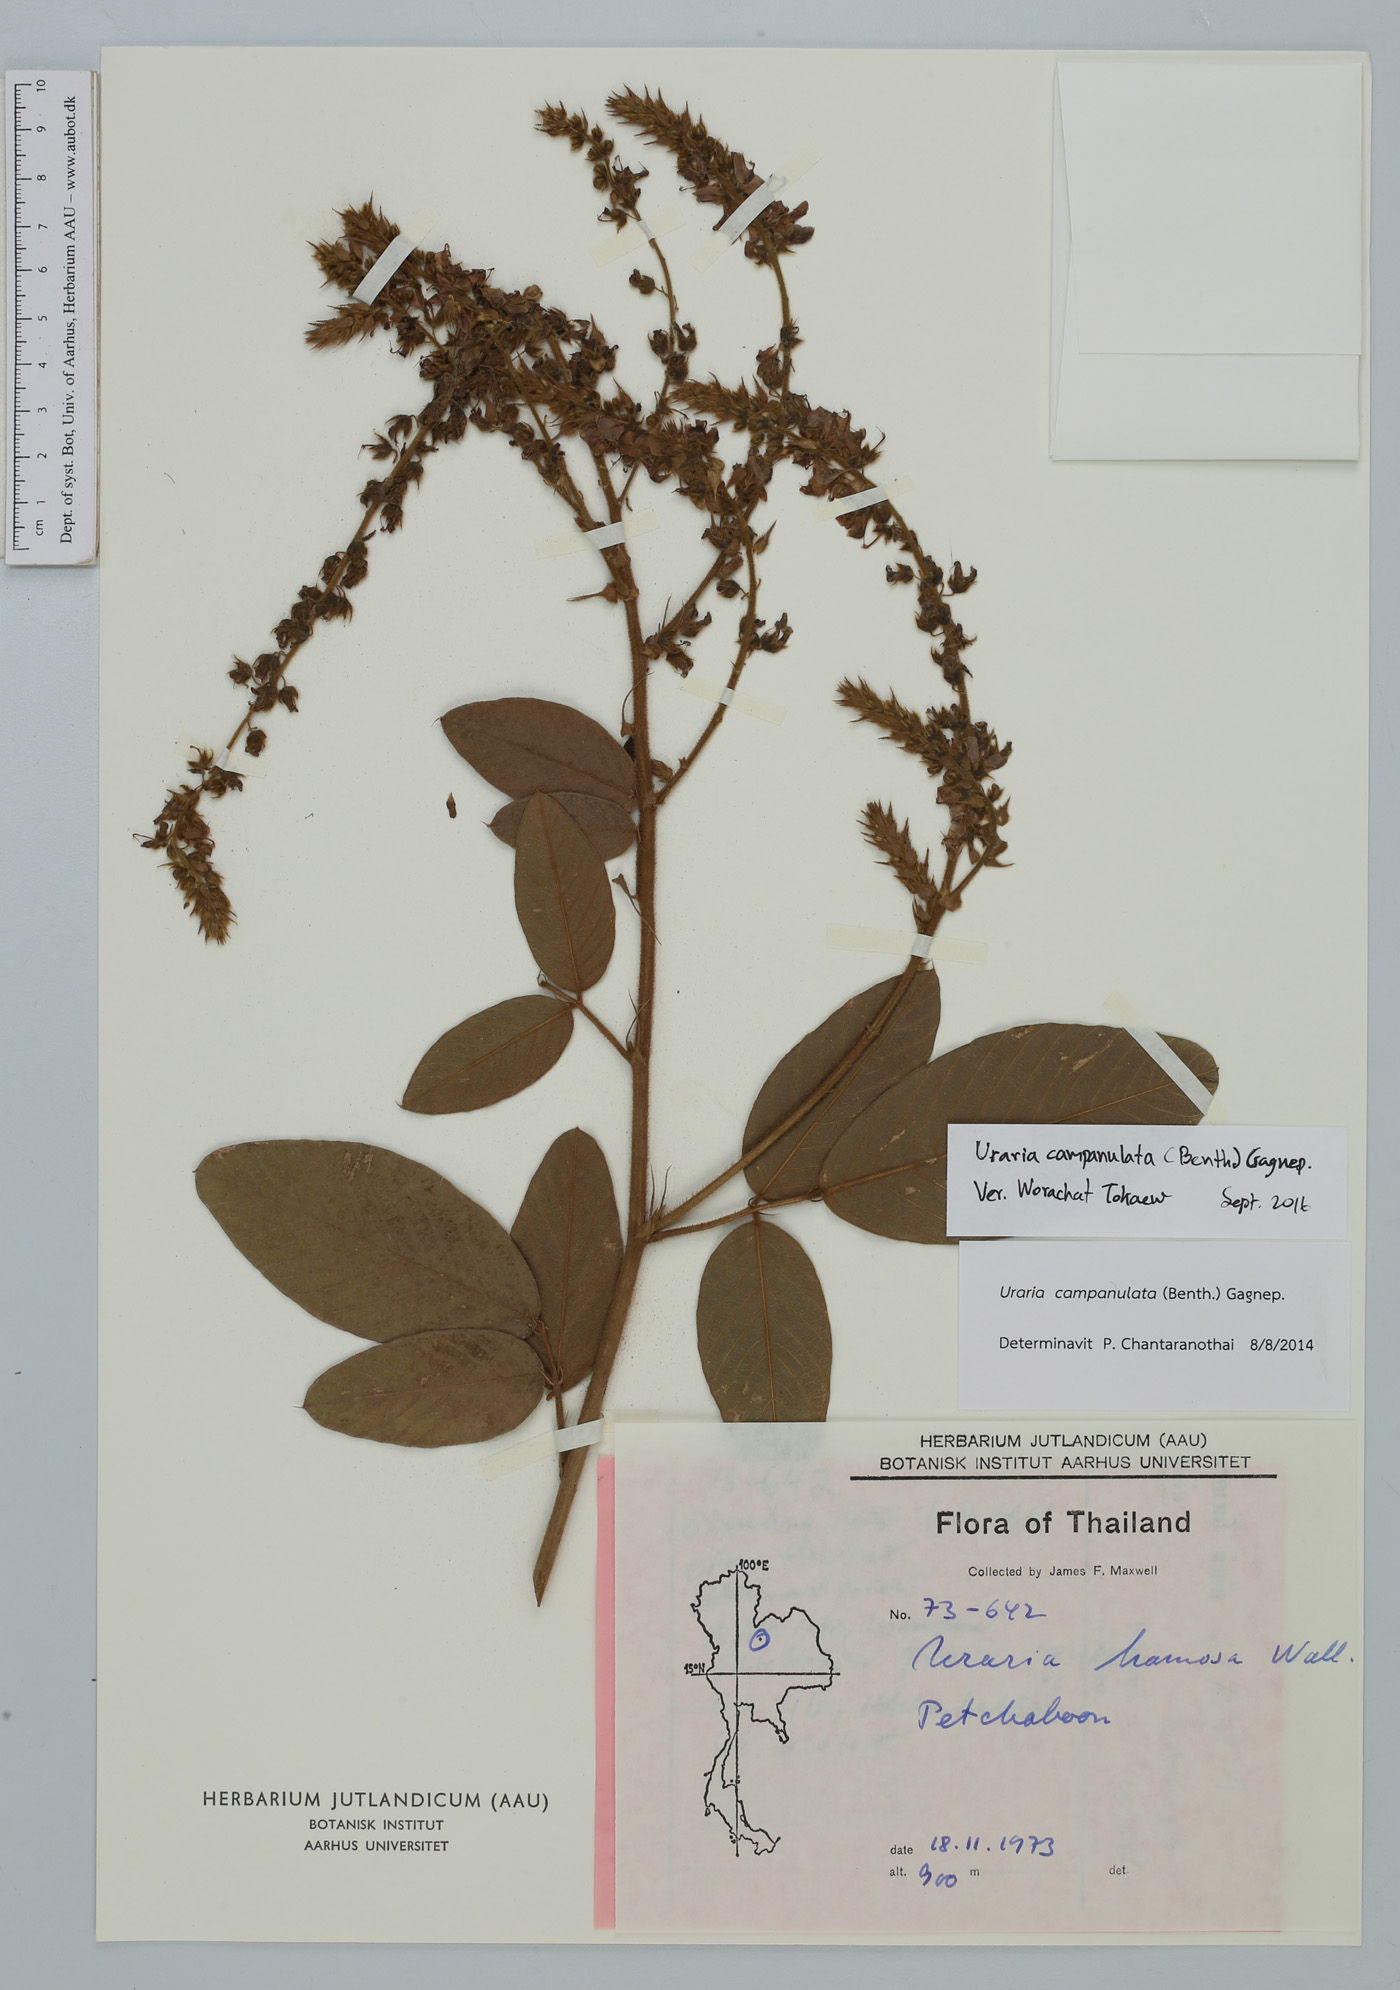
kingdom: Plantae
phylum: Tracheophyta
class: Magnoliopsida
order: Fabales
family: Fabaceae
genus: Uraria
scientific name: Uraria campanulata
